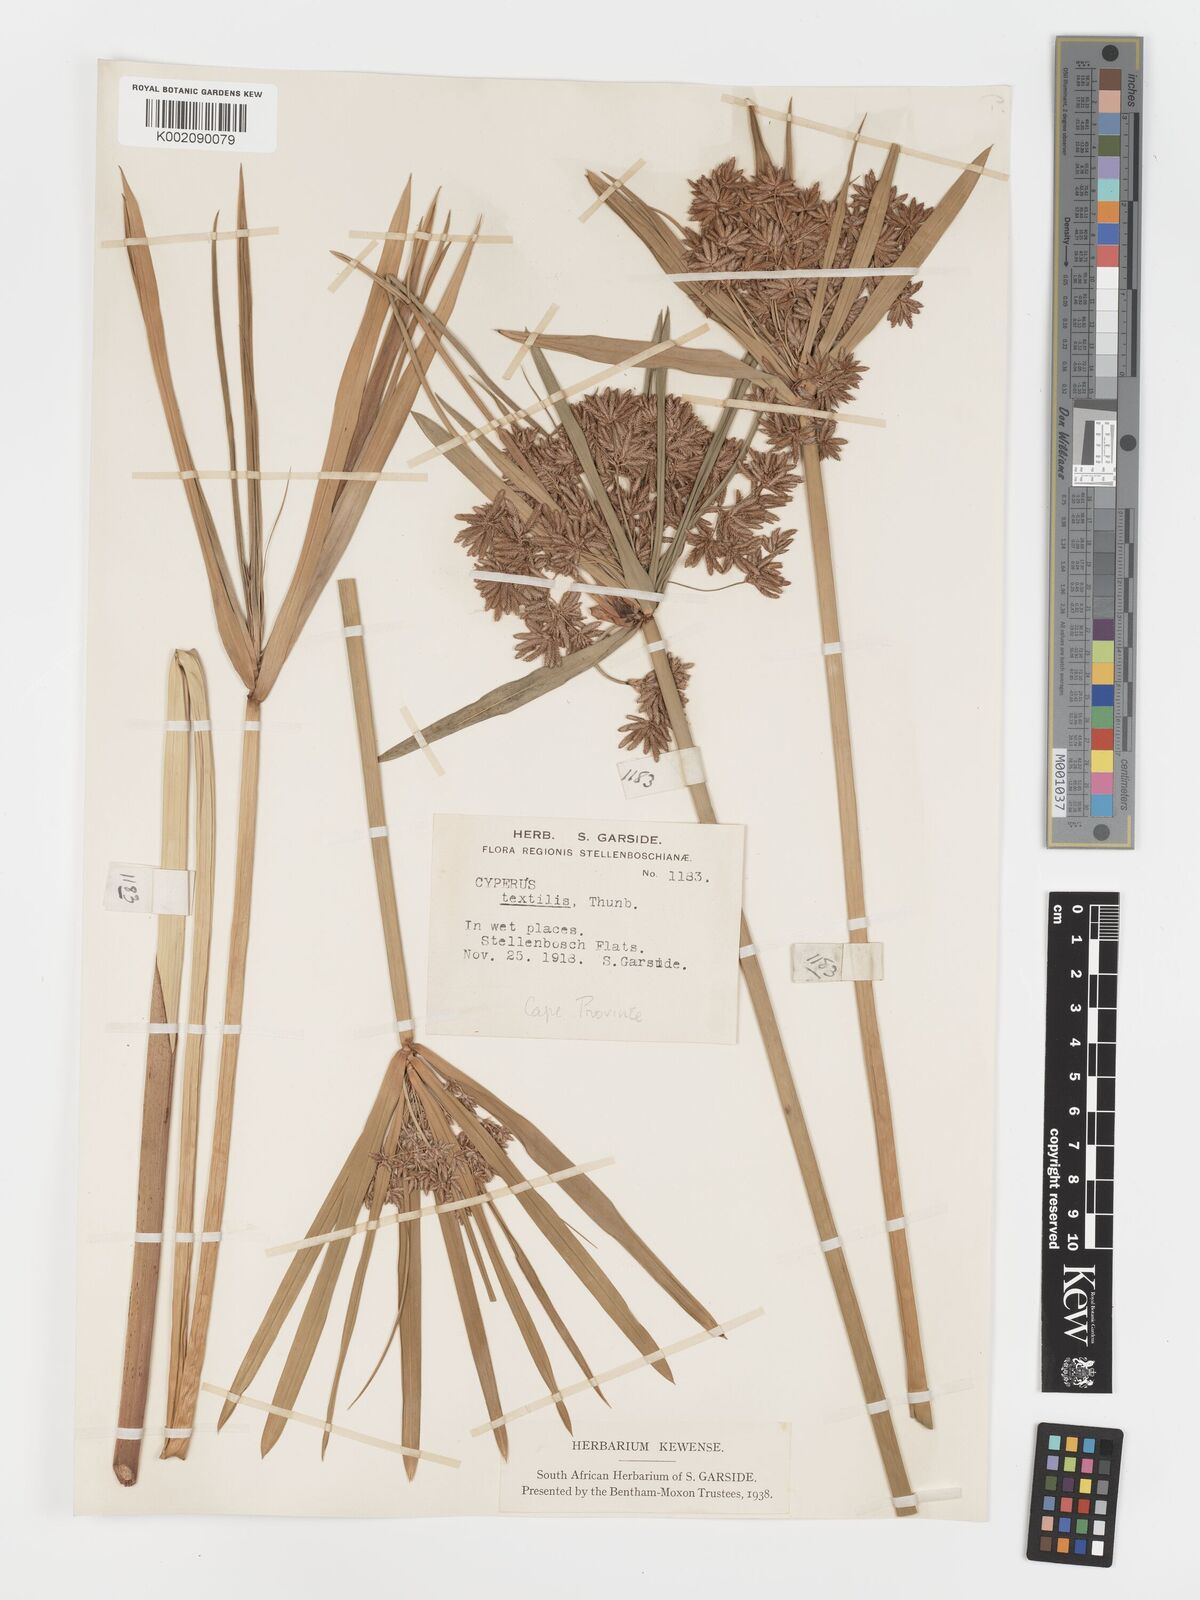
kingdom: Plantae
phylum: Tracheophyta
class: Liliopsida
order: Poales
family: Cyperaceae
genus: Cyperus
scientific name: Cyperus alternifolius
